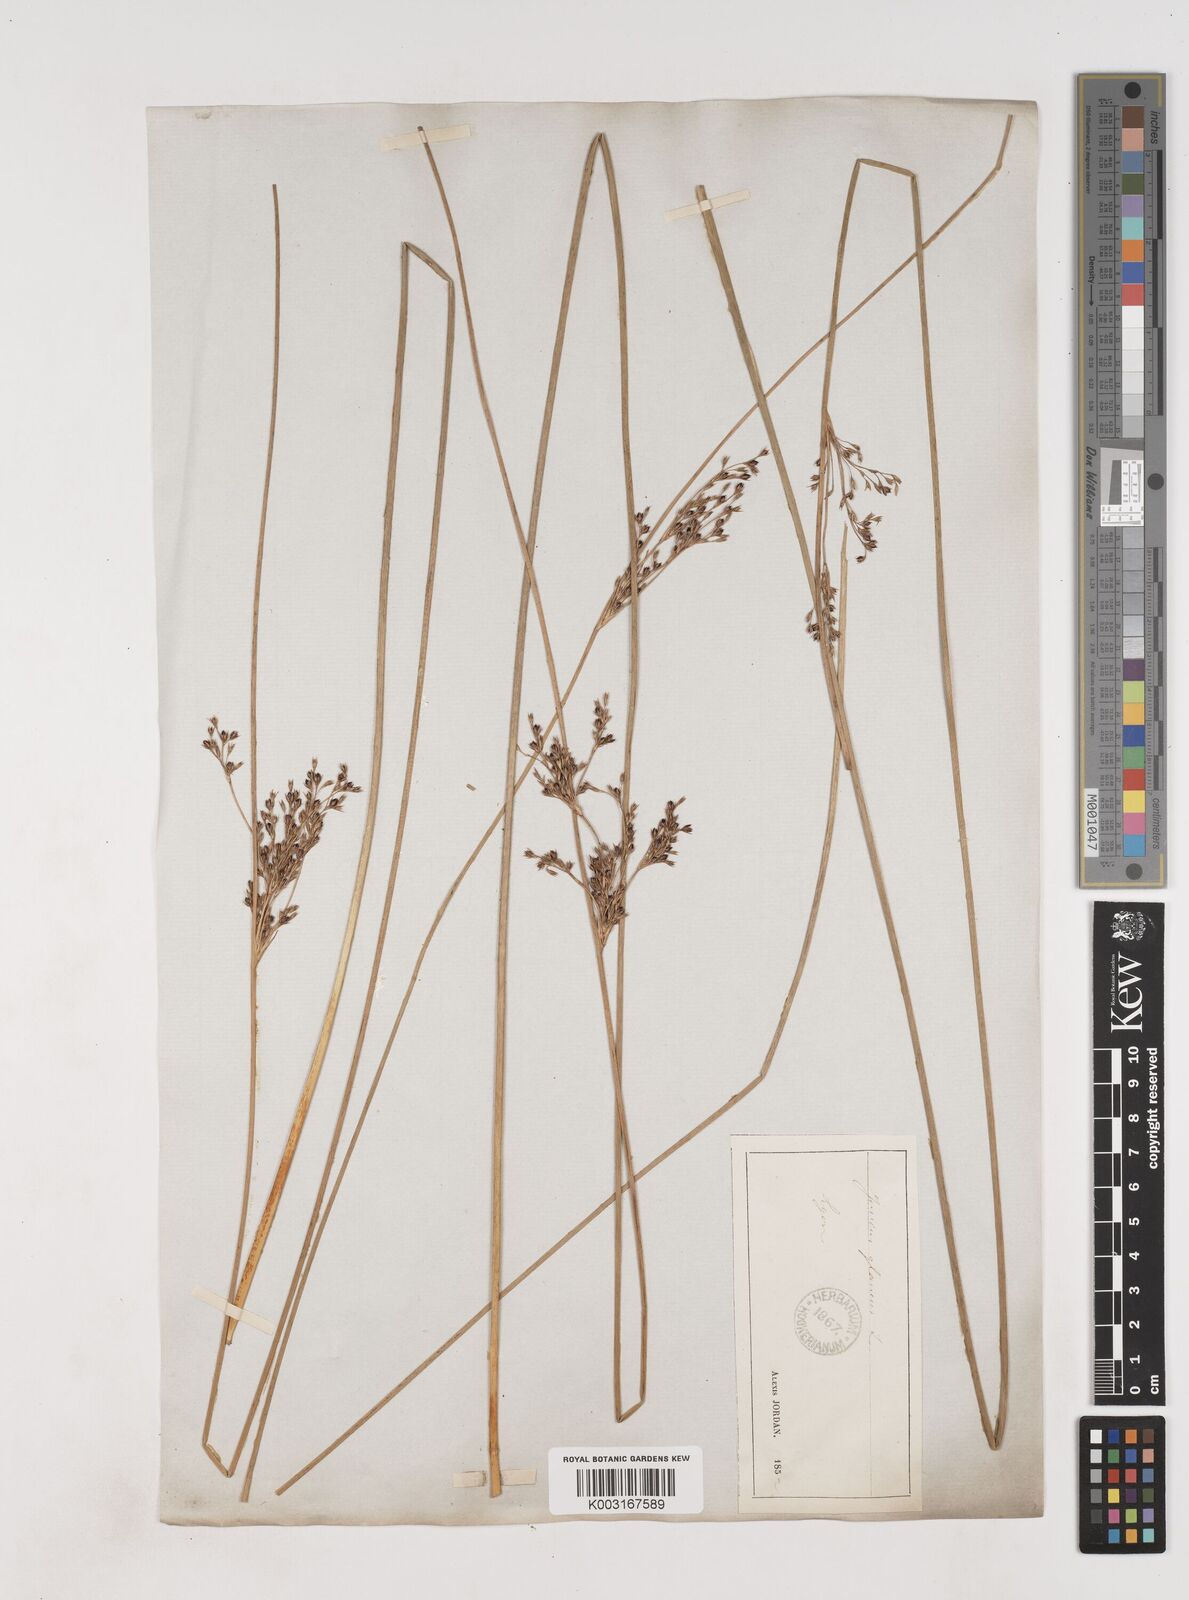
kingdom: Plantae
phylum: Tracheophyta
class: Liliopsida
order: Poales
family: Juncaceae
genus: Juncus
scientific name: Juncus inflexus
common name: Hard rush
